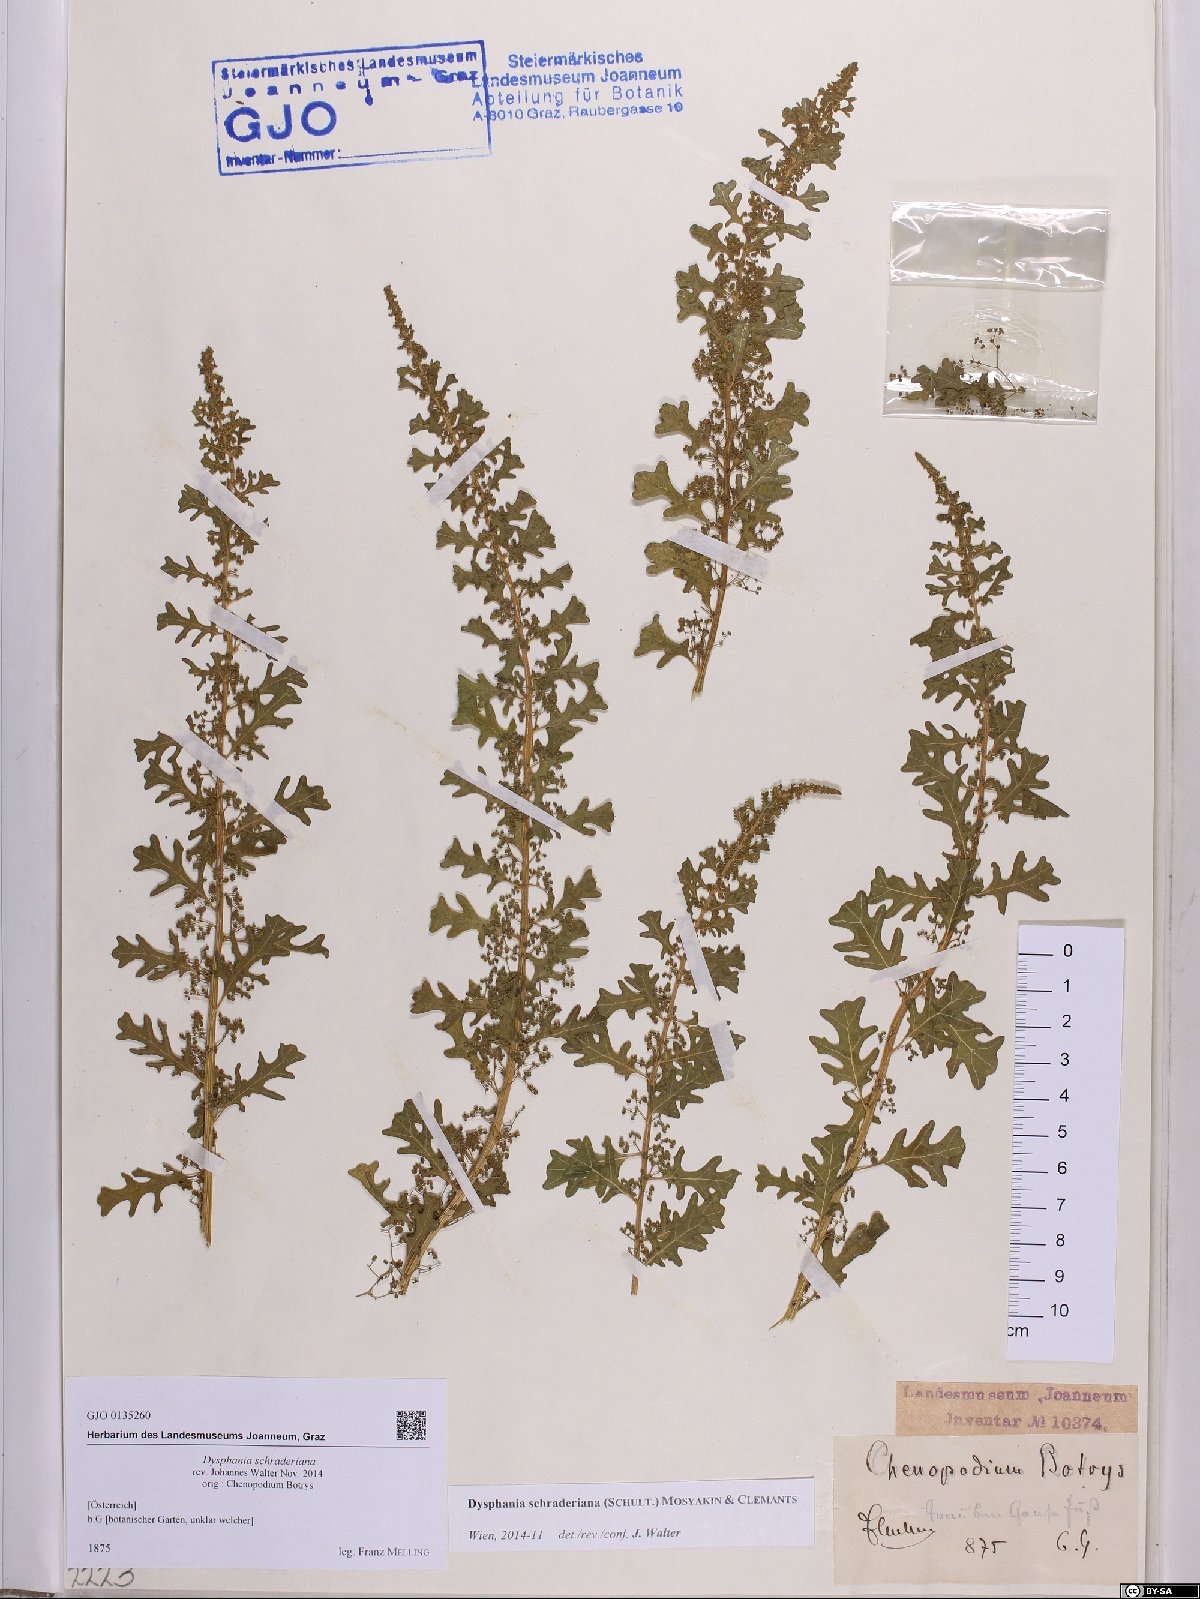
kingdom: Plantae
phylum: Tracheophyta
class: Magnoliopsida
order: Caryophyllales
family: Amaranthaceae
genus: Dysphania
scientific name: Dysphania schraderiana
